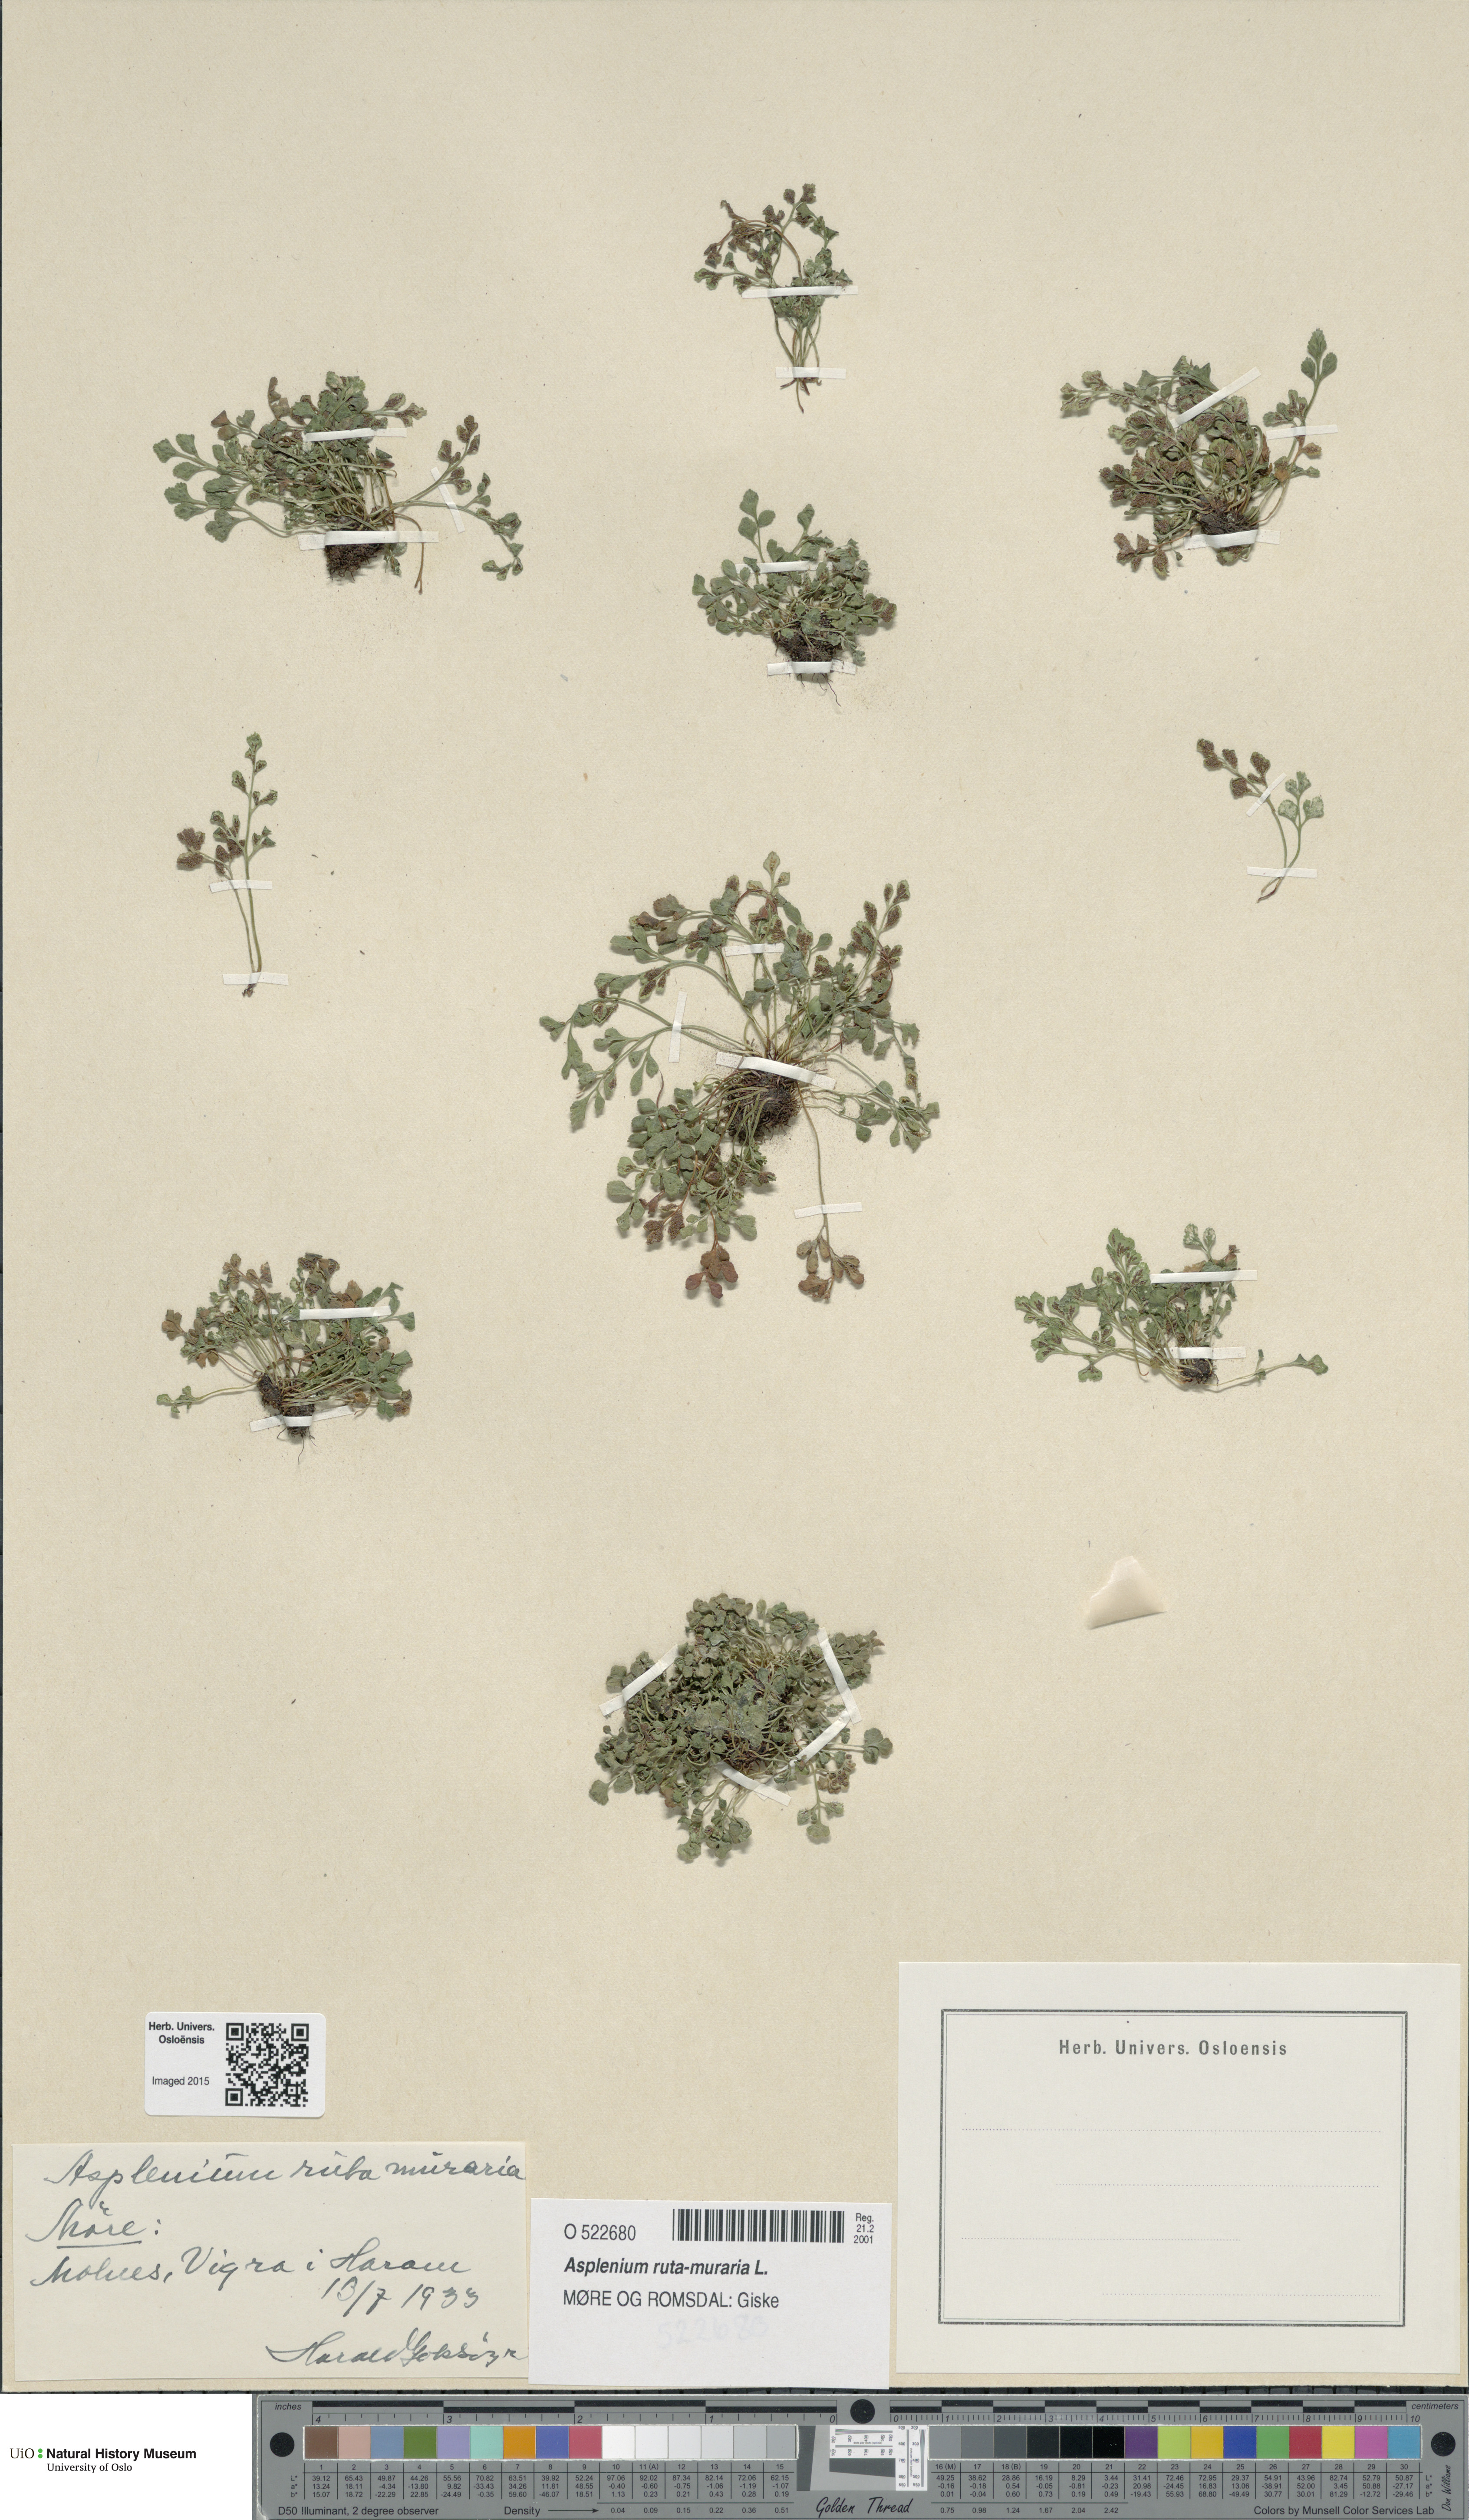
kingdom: Plantae
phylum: Tracheophyta
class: Polypodiopsida
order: Polypodiales
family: Aspleniaceae
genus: Asplenium
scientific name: Asplenium ruta-muraria
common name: Wall-rue
